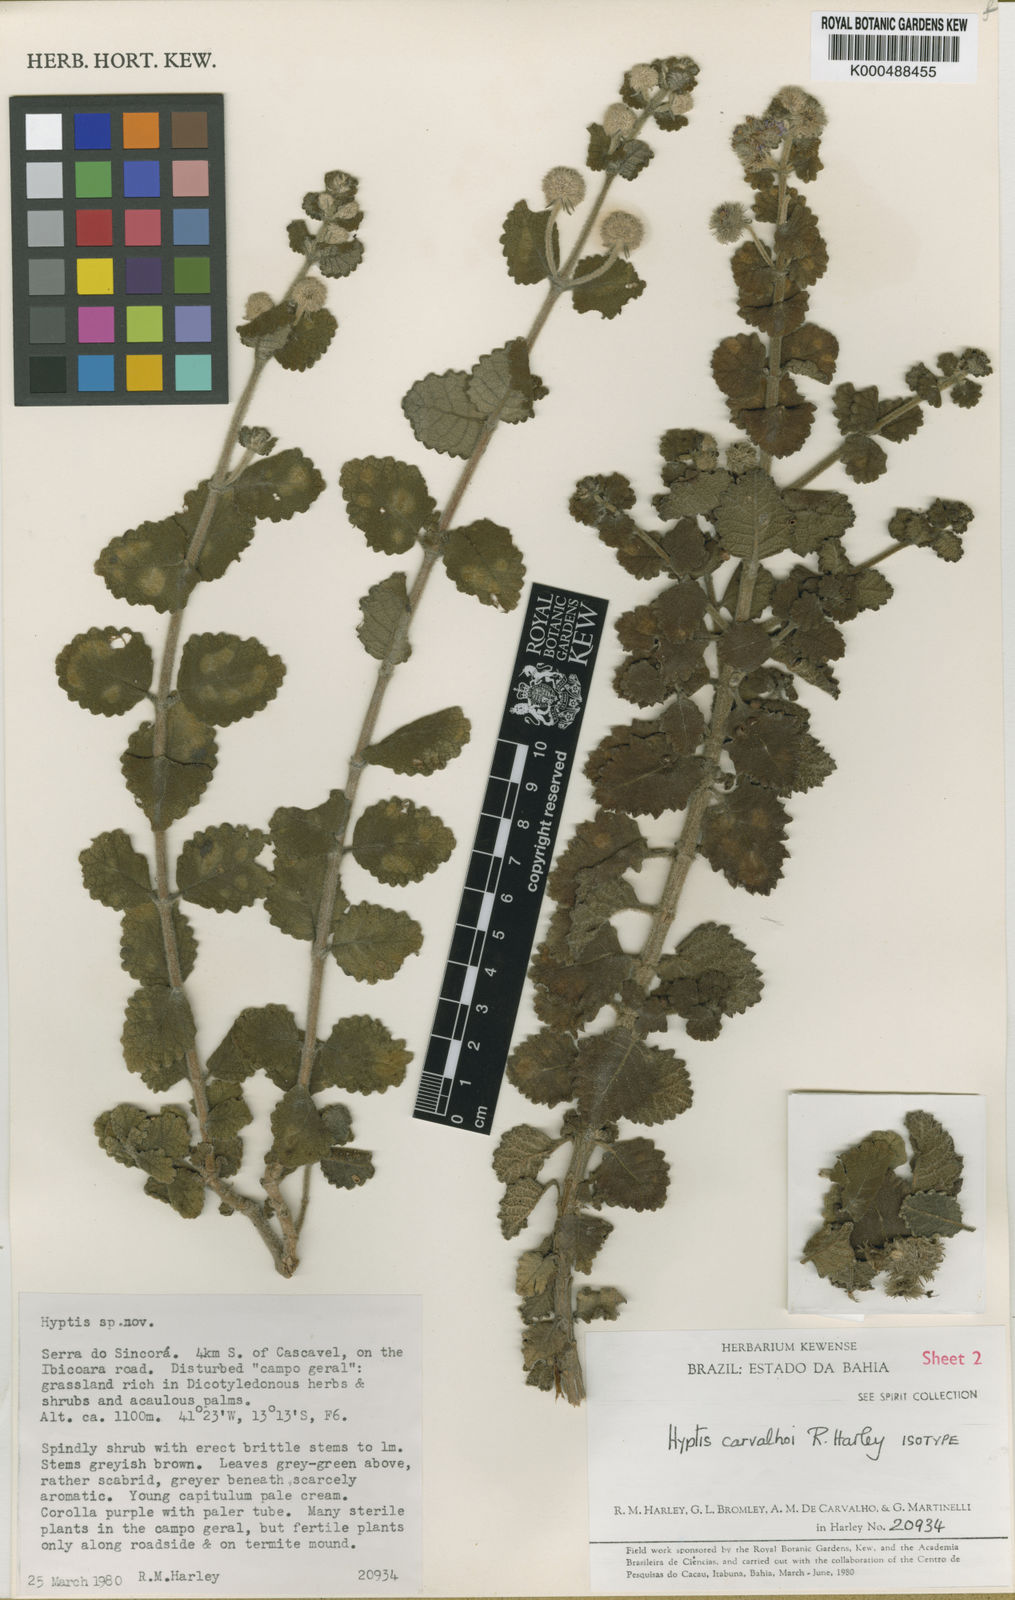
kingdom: Plantae
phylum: Tracheophyta
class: Magnoliopsida
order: Lamiales
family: Lamiaceae
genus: Medusantha
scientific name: Medusantha carvalhoi
